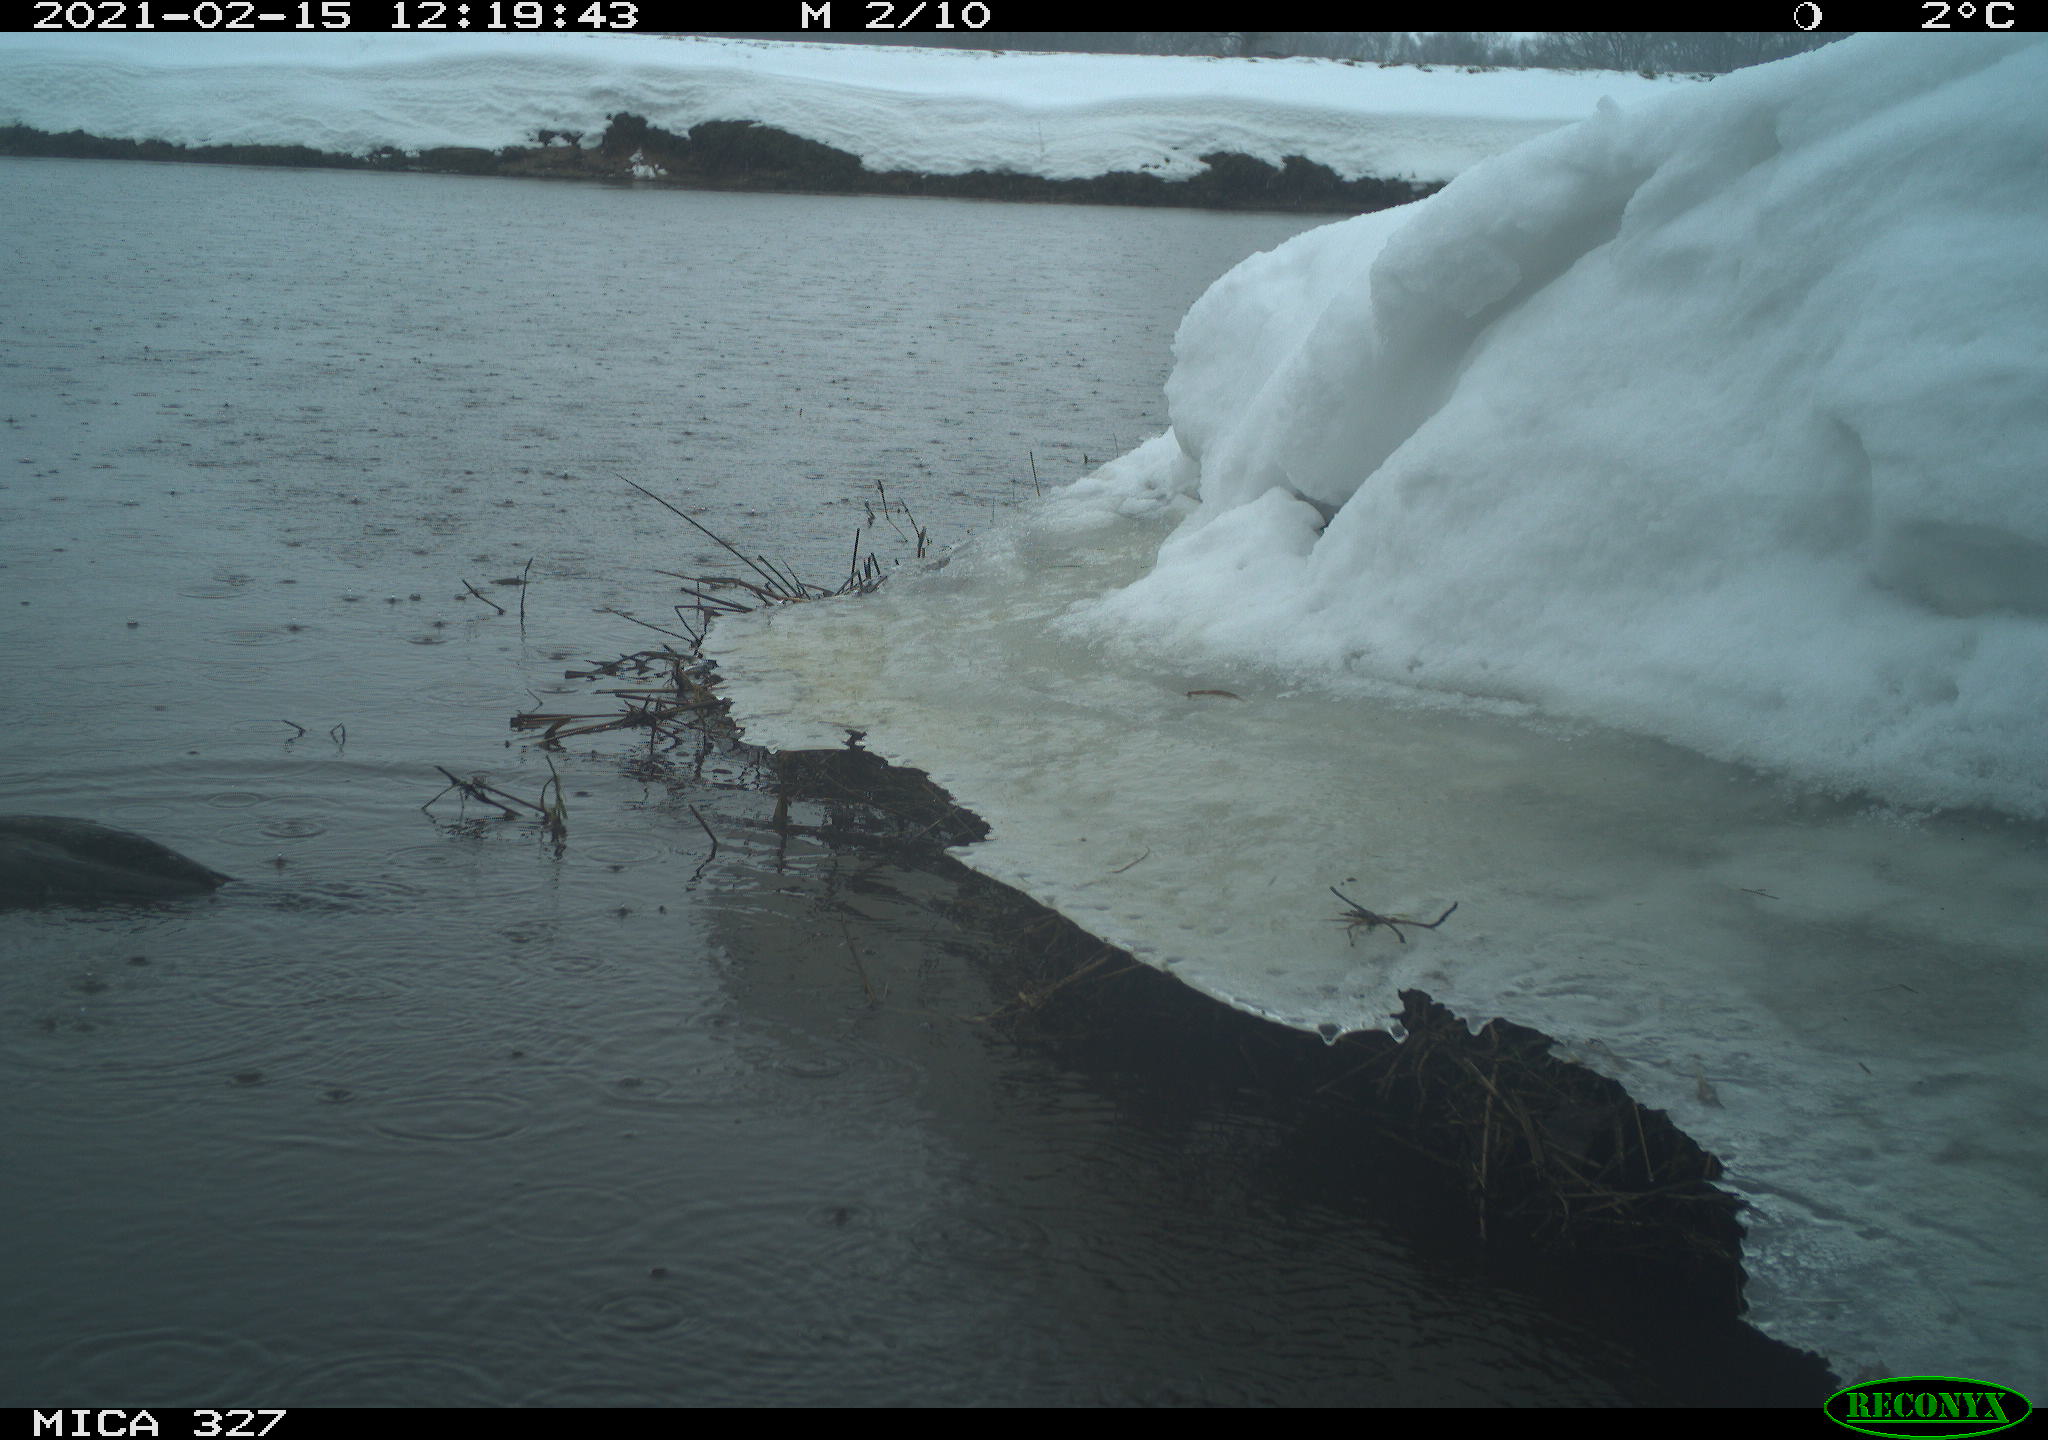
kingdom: Animalia
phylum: Chordata
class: Aves
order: Suliformes
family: Phalacrocoracidae
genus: Phalacrocorax
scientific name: Phalacrocorax carbo
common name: Great cormorant
